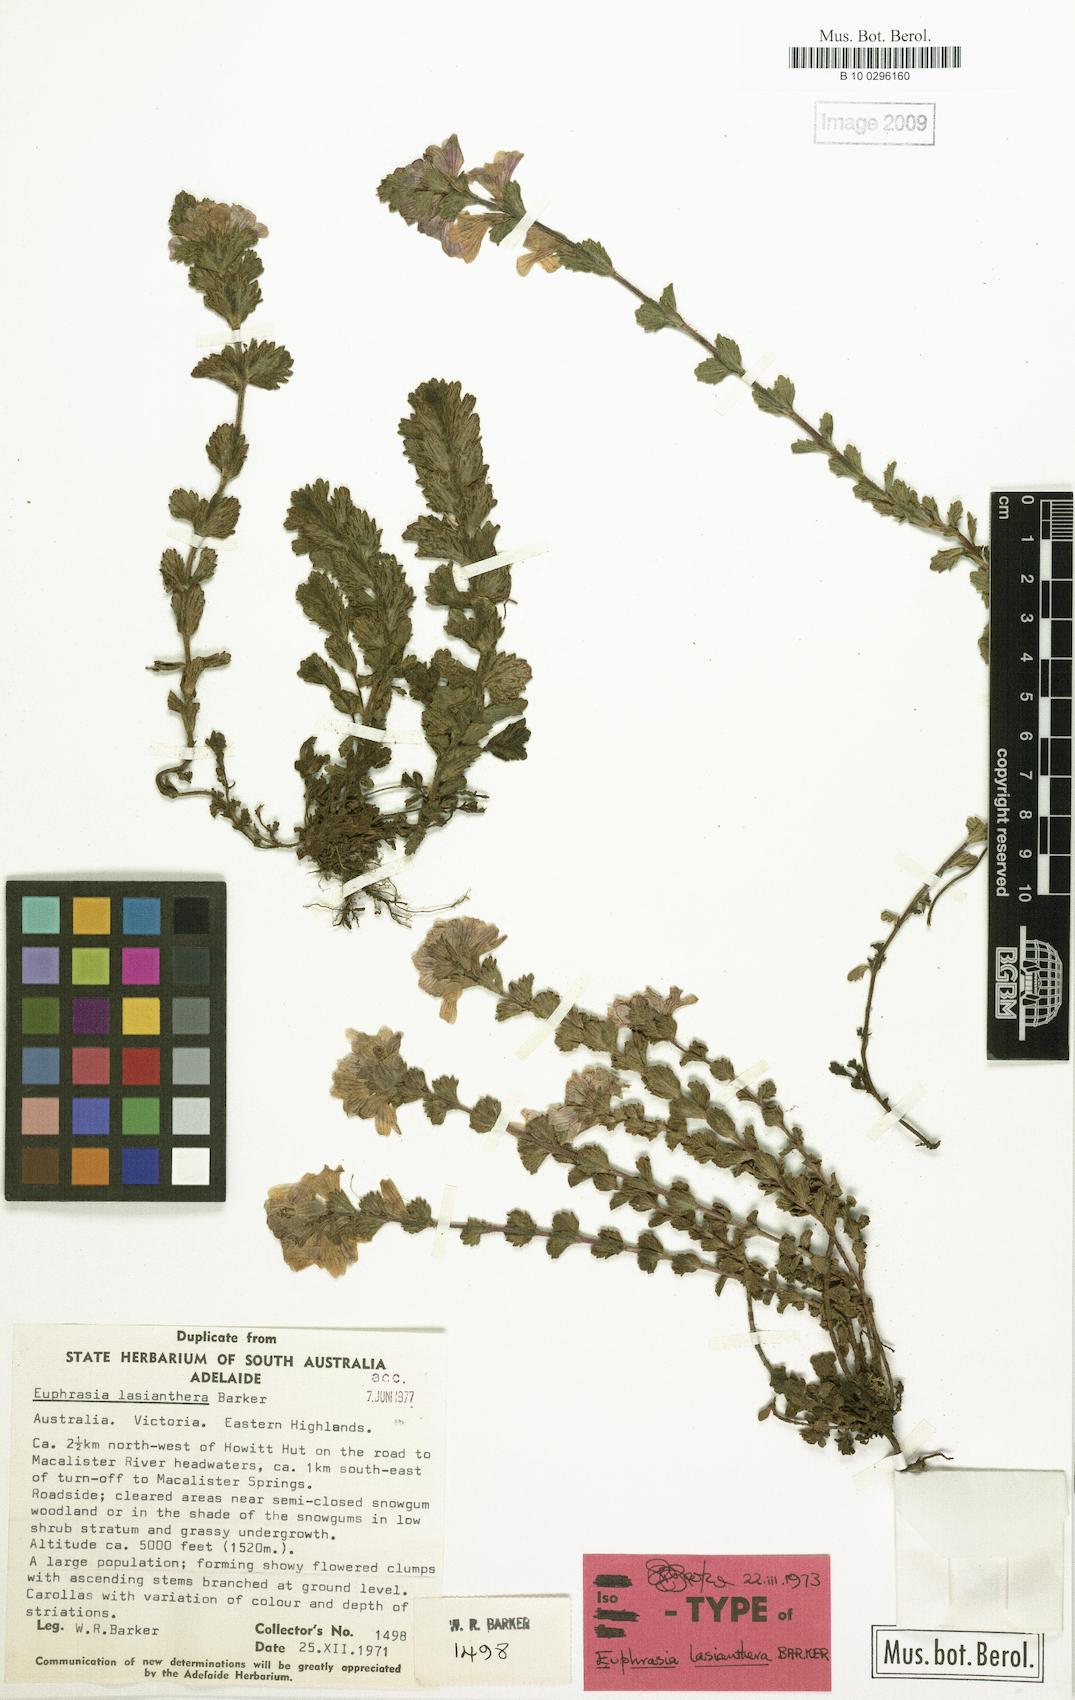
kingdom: Plantae
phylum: Tracheophyta
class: Magnoliopsida
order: Lamiales
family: Orobanchaceae
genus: Euphrasia
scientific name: Euphrasia lasianthera
